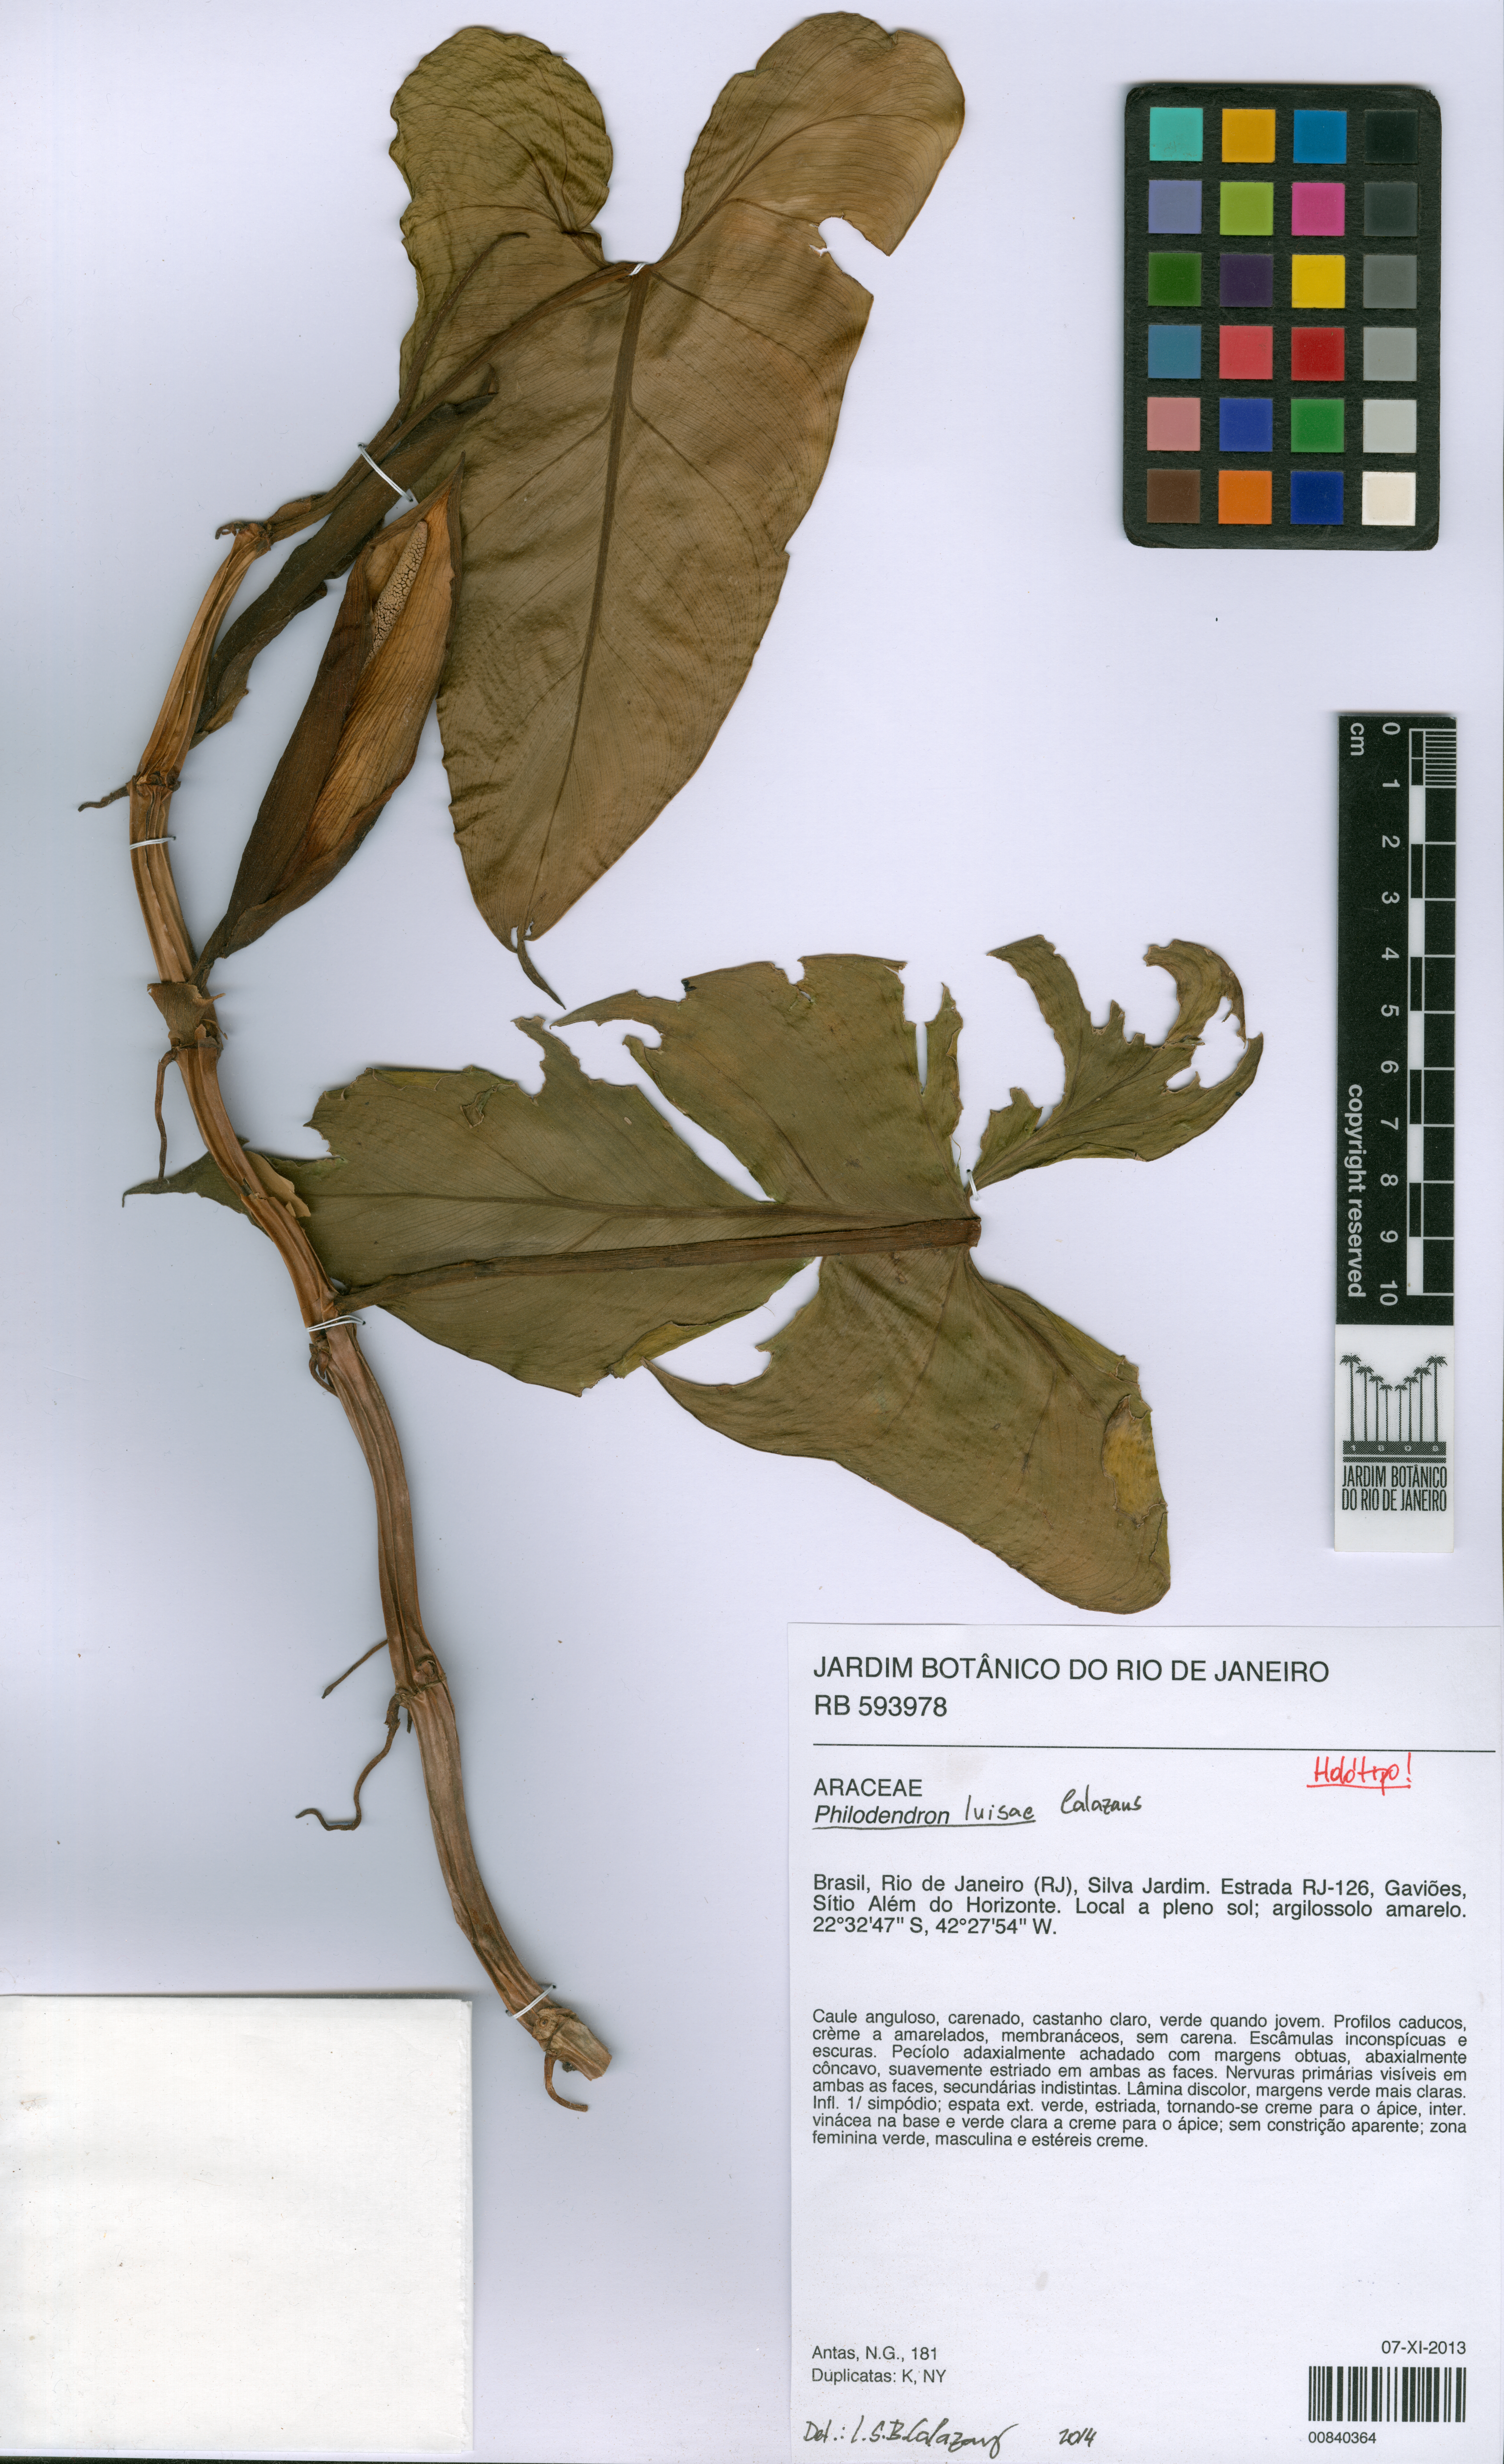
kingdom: Plantae
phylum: Tracheophyta
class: Liliopsida
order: Alismatales
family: Araceae
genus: Philodendron
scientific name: Philodendron luisae
